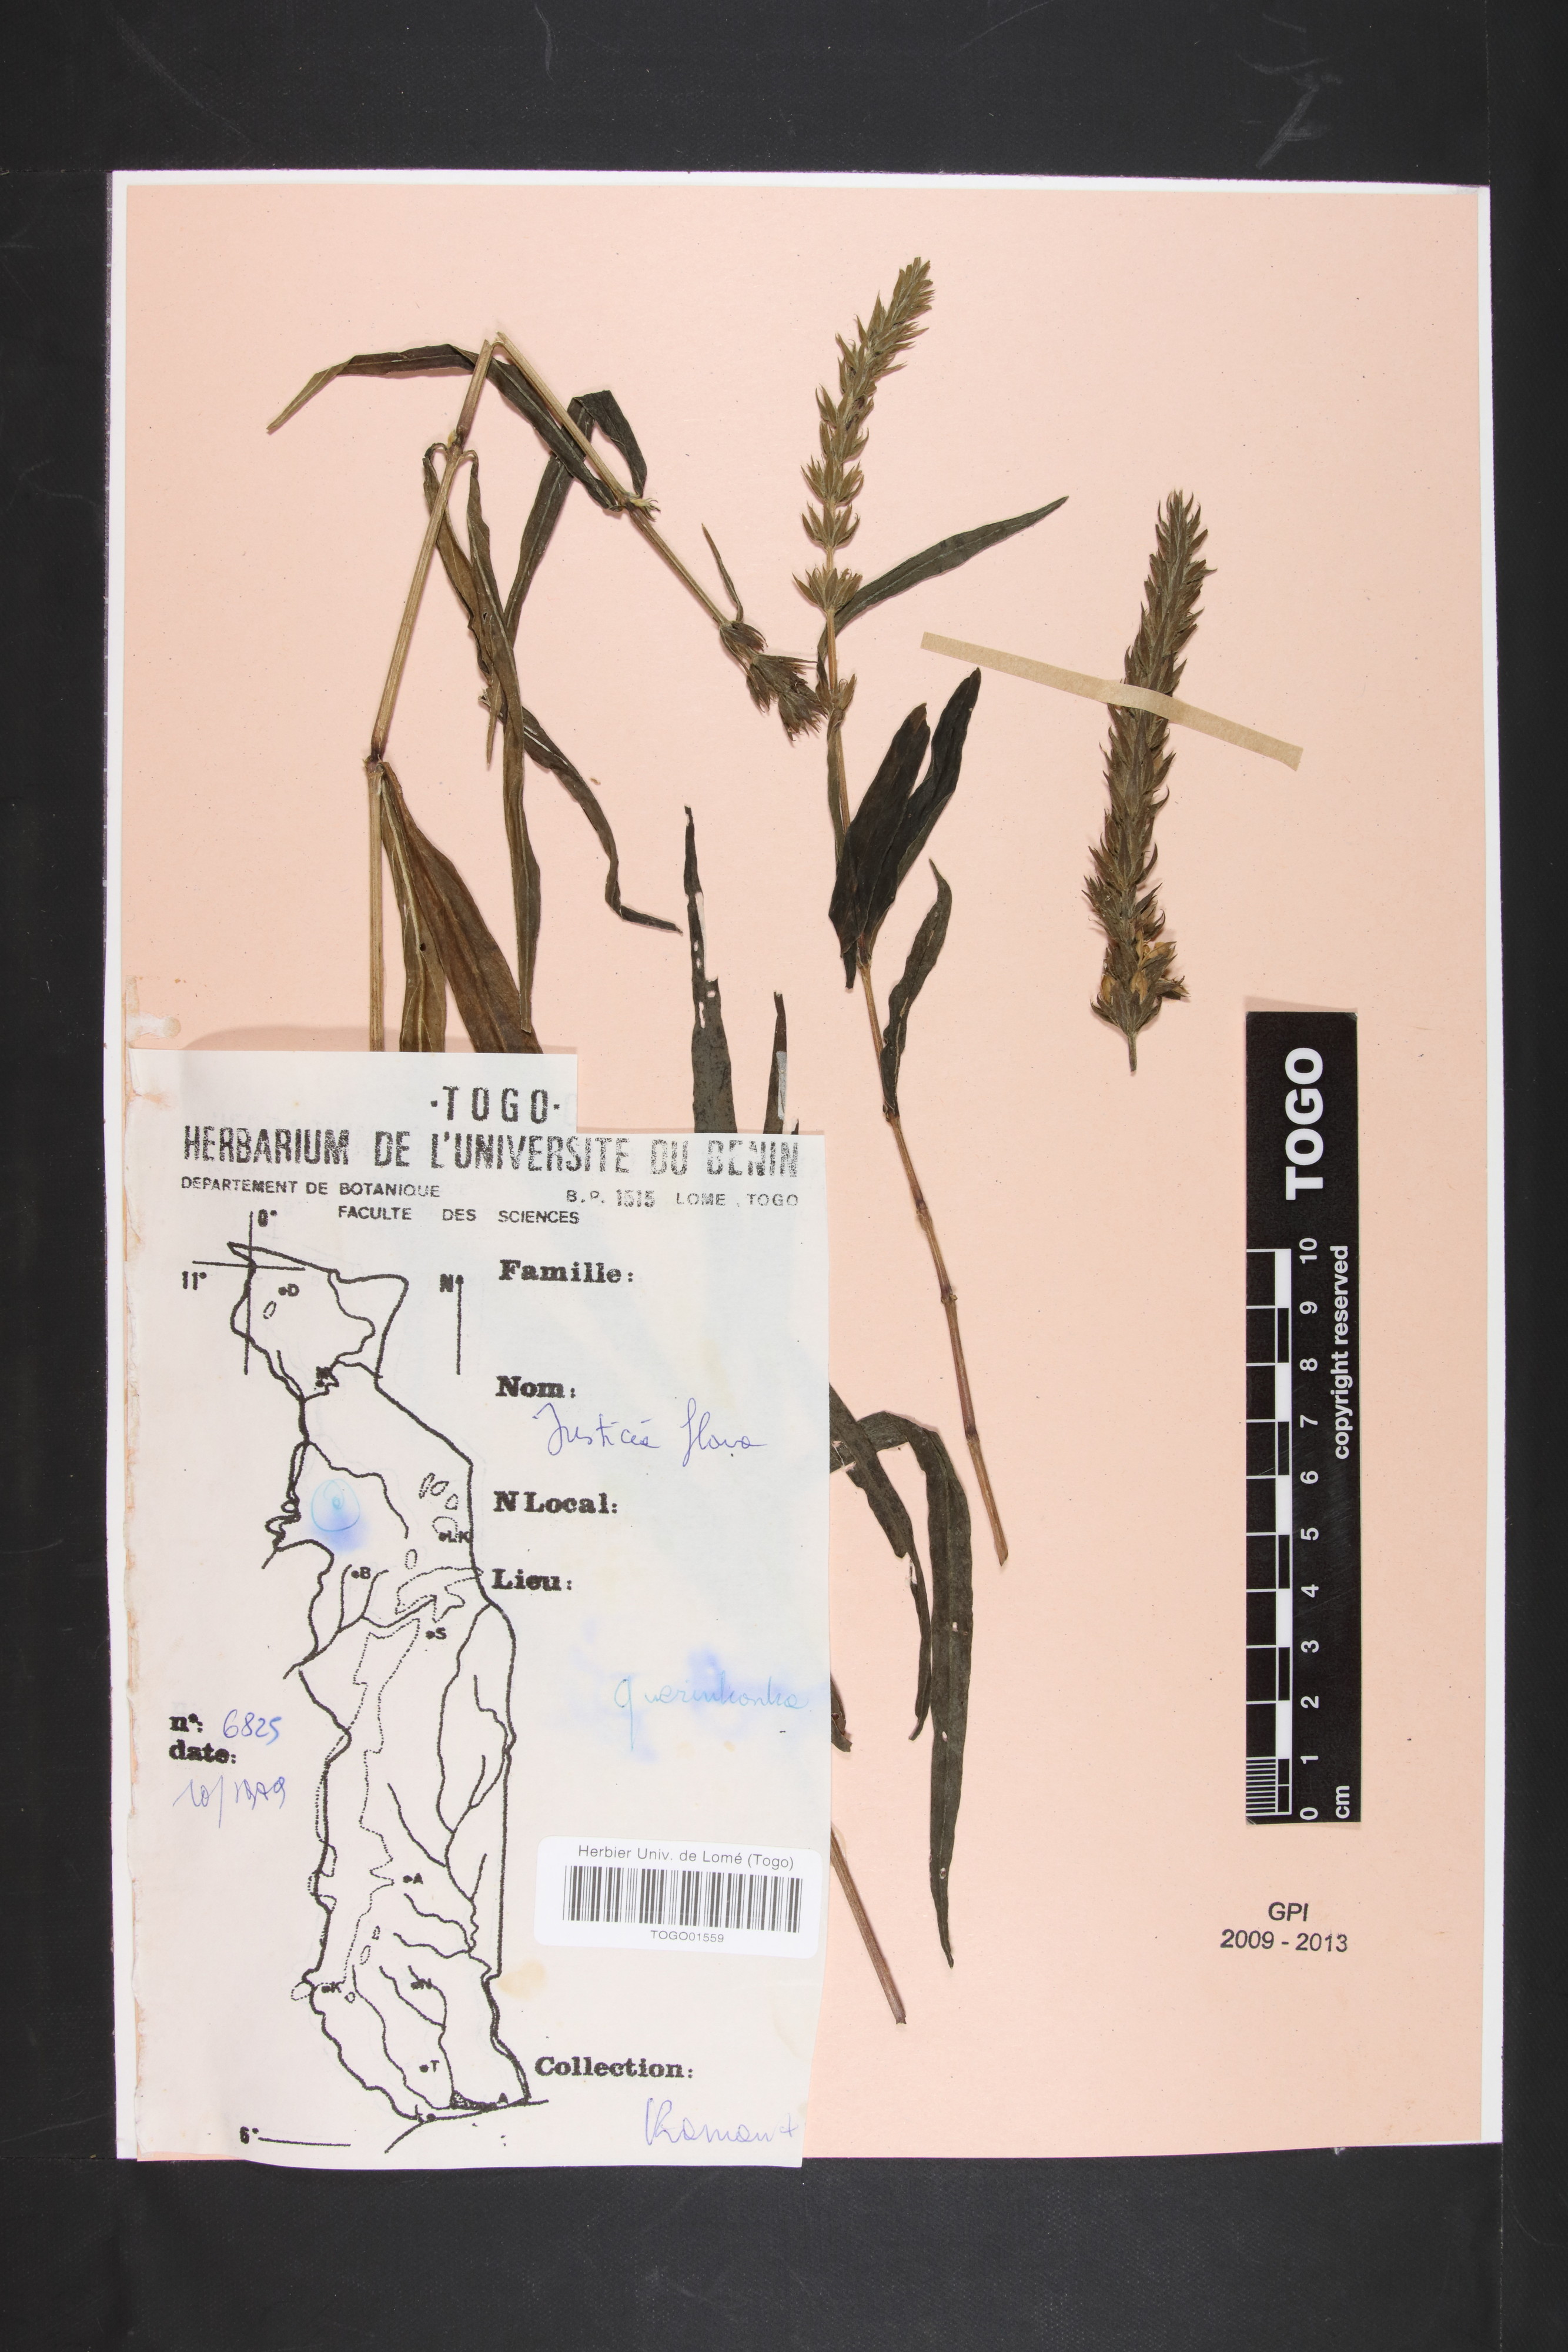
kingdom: Plantae
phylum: Tracheophyta
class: Magnoliopsida
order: Lamiales
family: Acanthaceae
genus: Justicia
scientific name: Justicia flava
